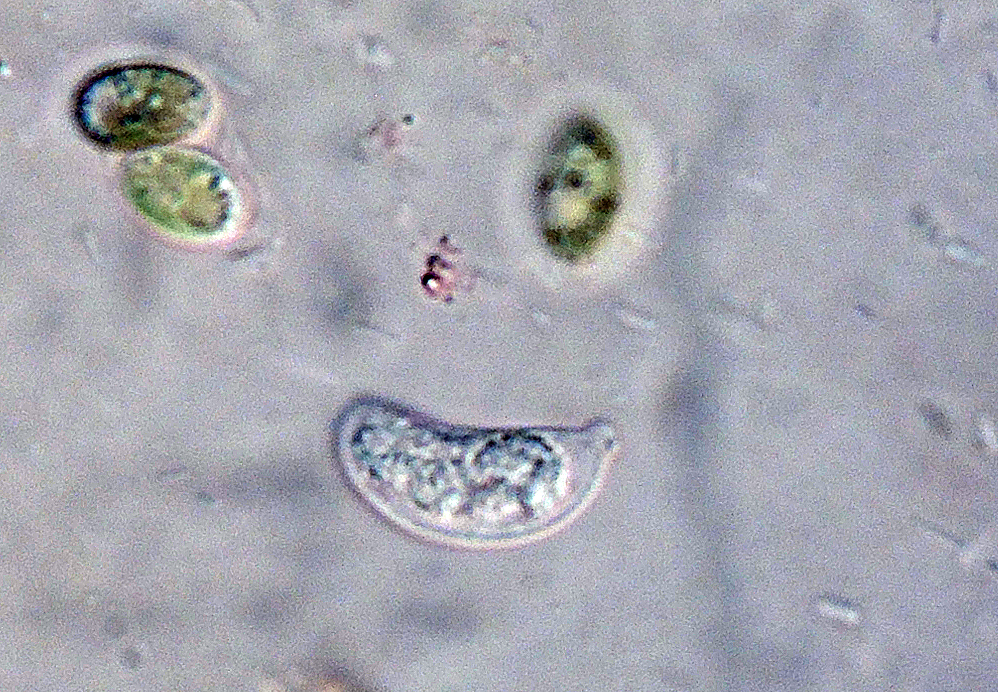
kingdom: Fungi
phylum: Basidiomycota
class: Agaricomycetes
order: Auriculariales
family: Hyaloriaceae
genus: Myxarium
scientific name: Myxarium
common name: bævretop
